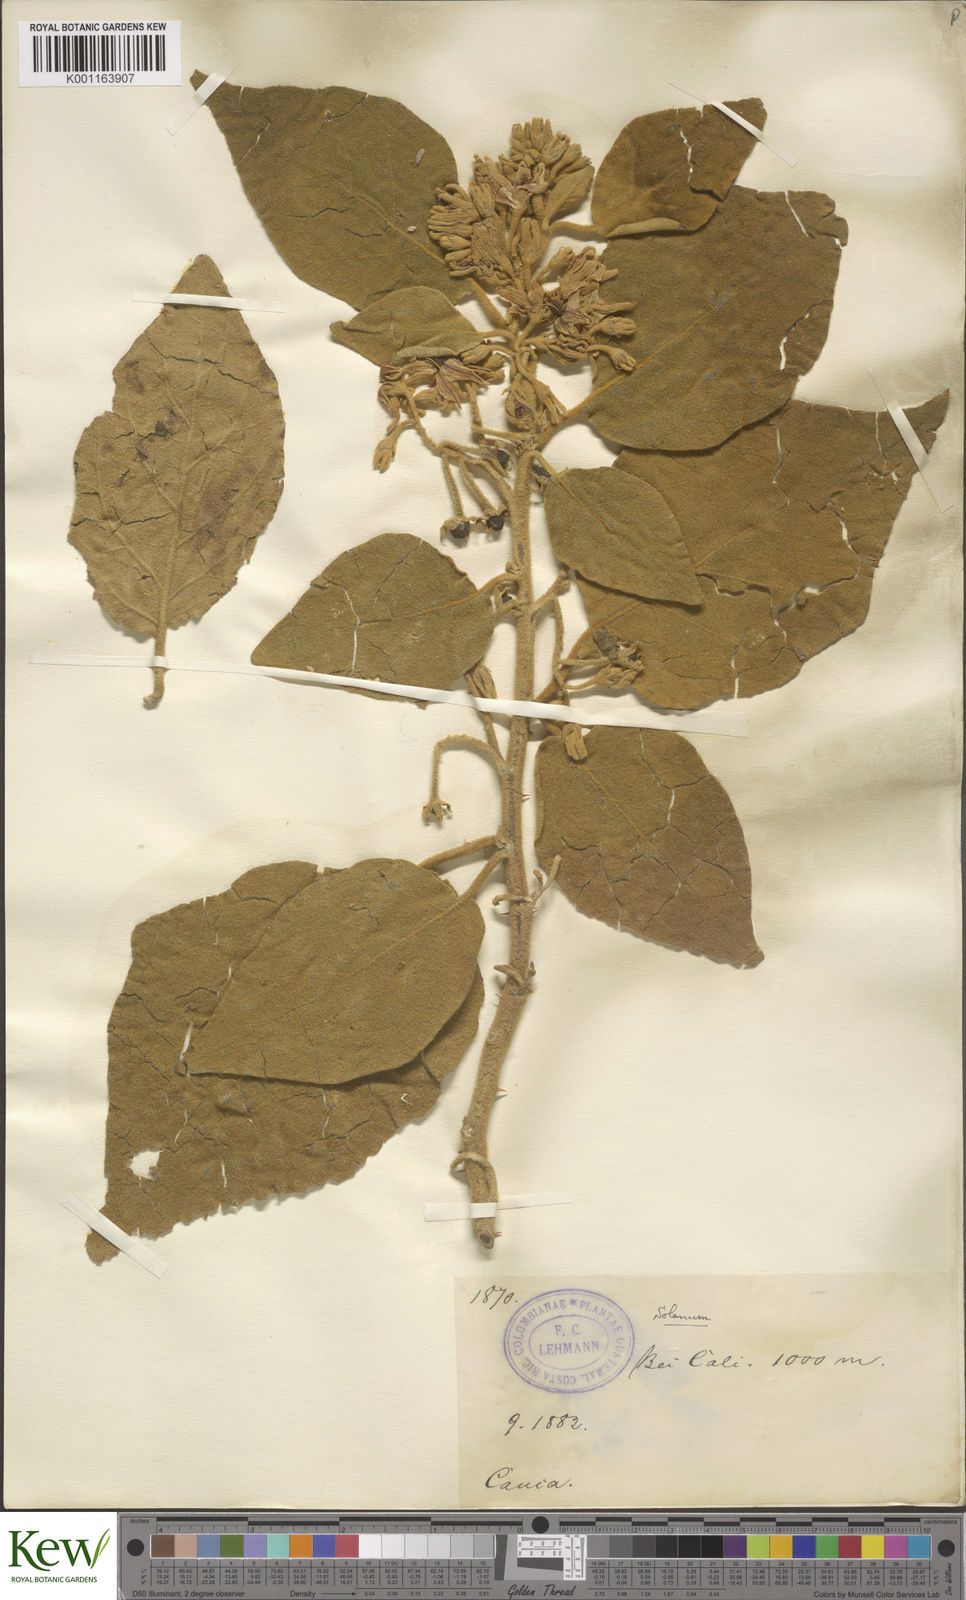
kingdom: Plantae
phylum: Tracheophyta
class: Magnoliopsida
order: Solanales
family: Solanaceae
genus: Solanum
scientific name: Solanum
